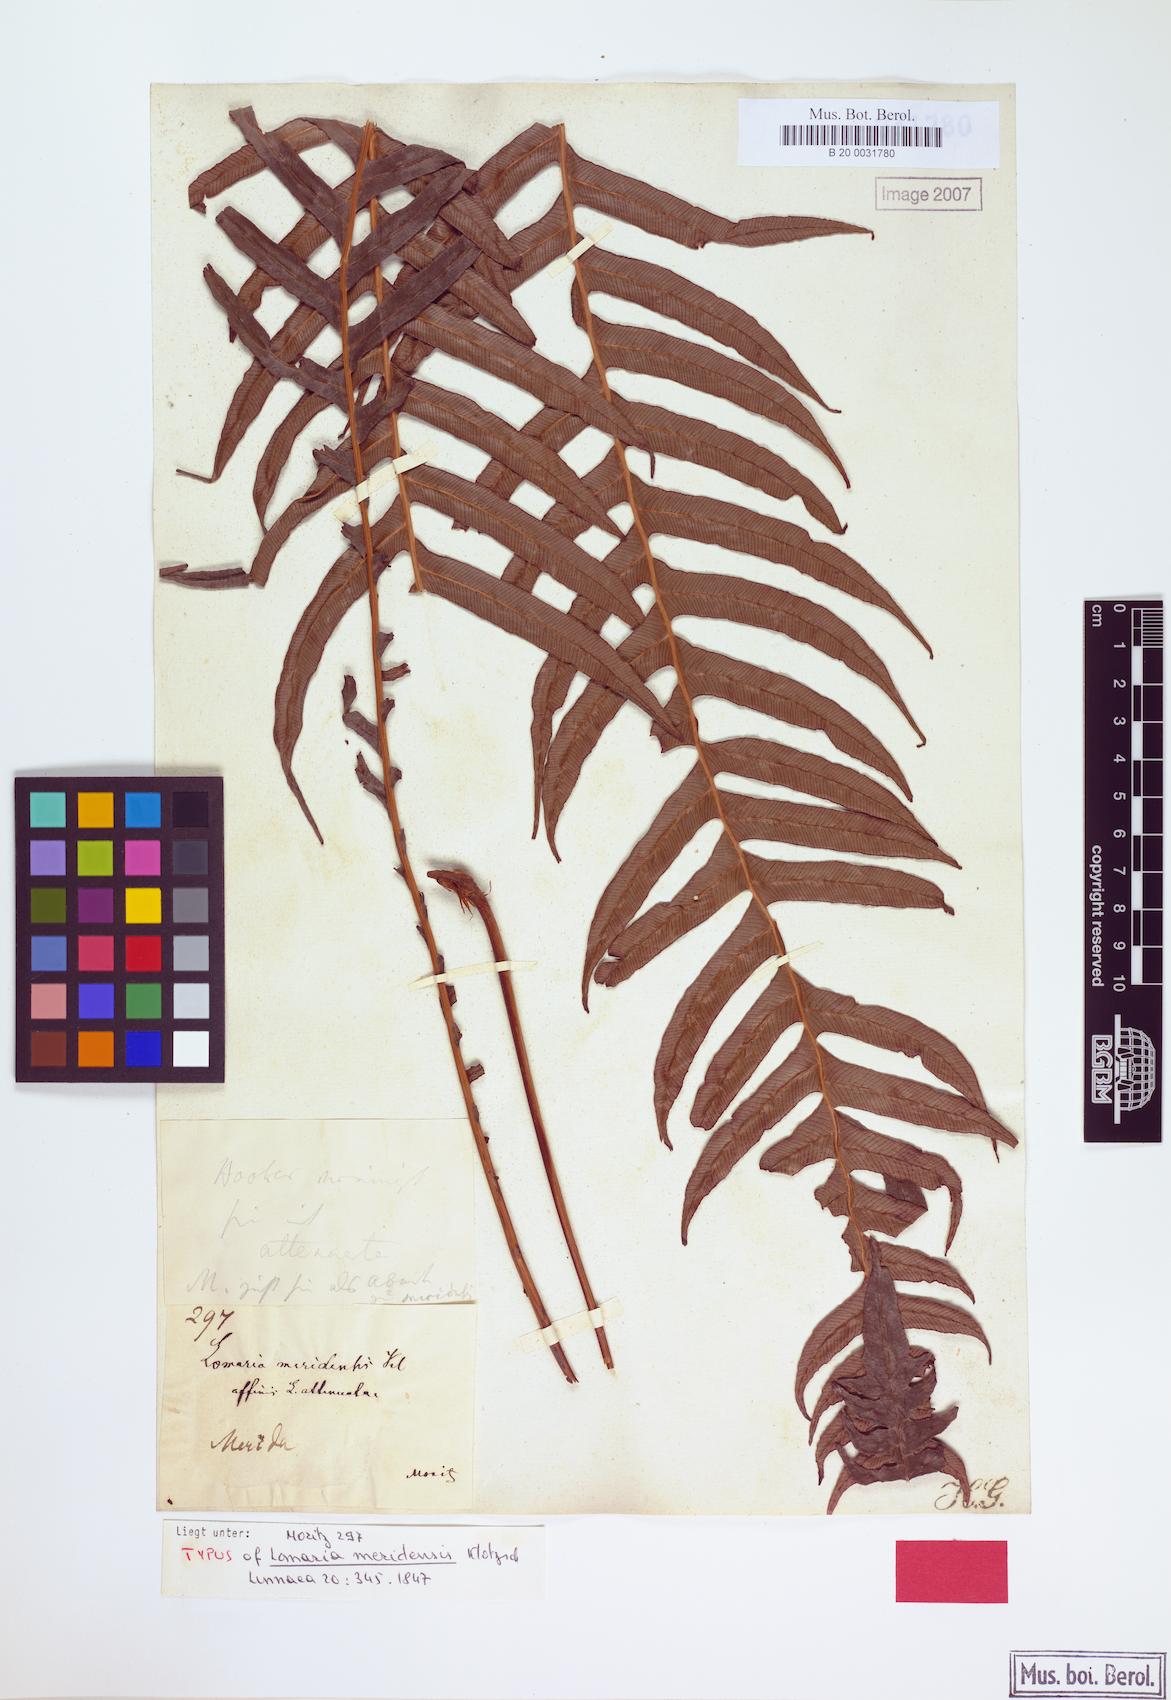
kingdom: Plantae
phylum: Tracheophyta
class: Polypodiopsida
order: Polypodiales
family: Blechnaceae
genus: Lomaridium
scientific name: Lomaridium ensiforme
